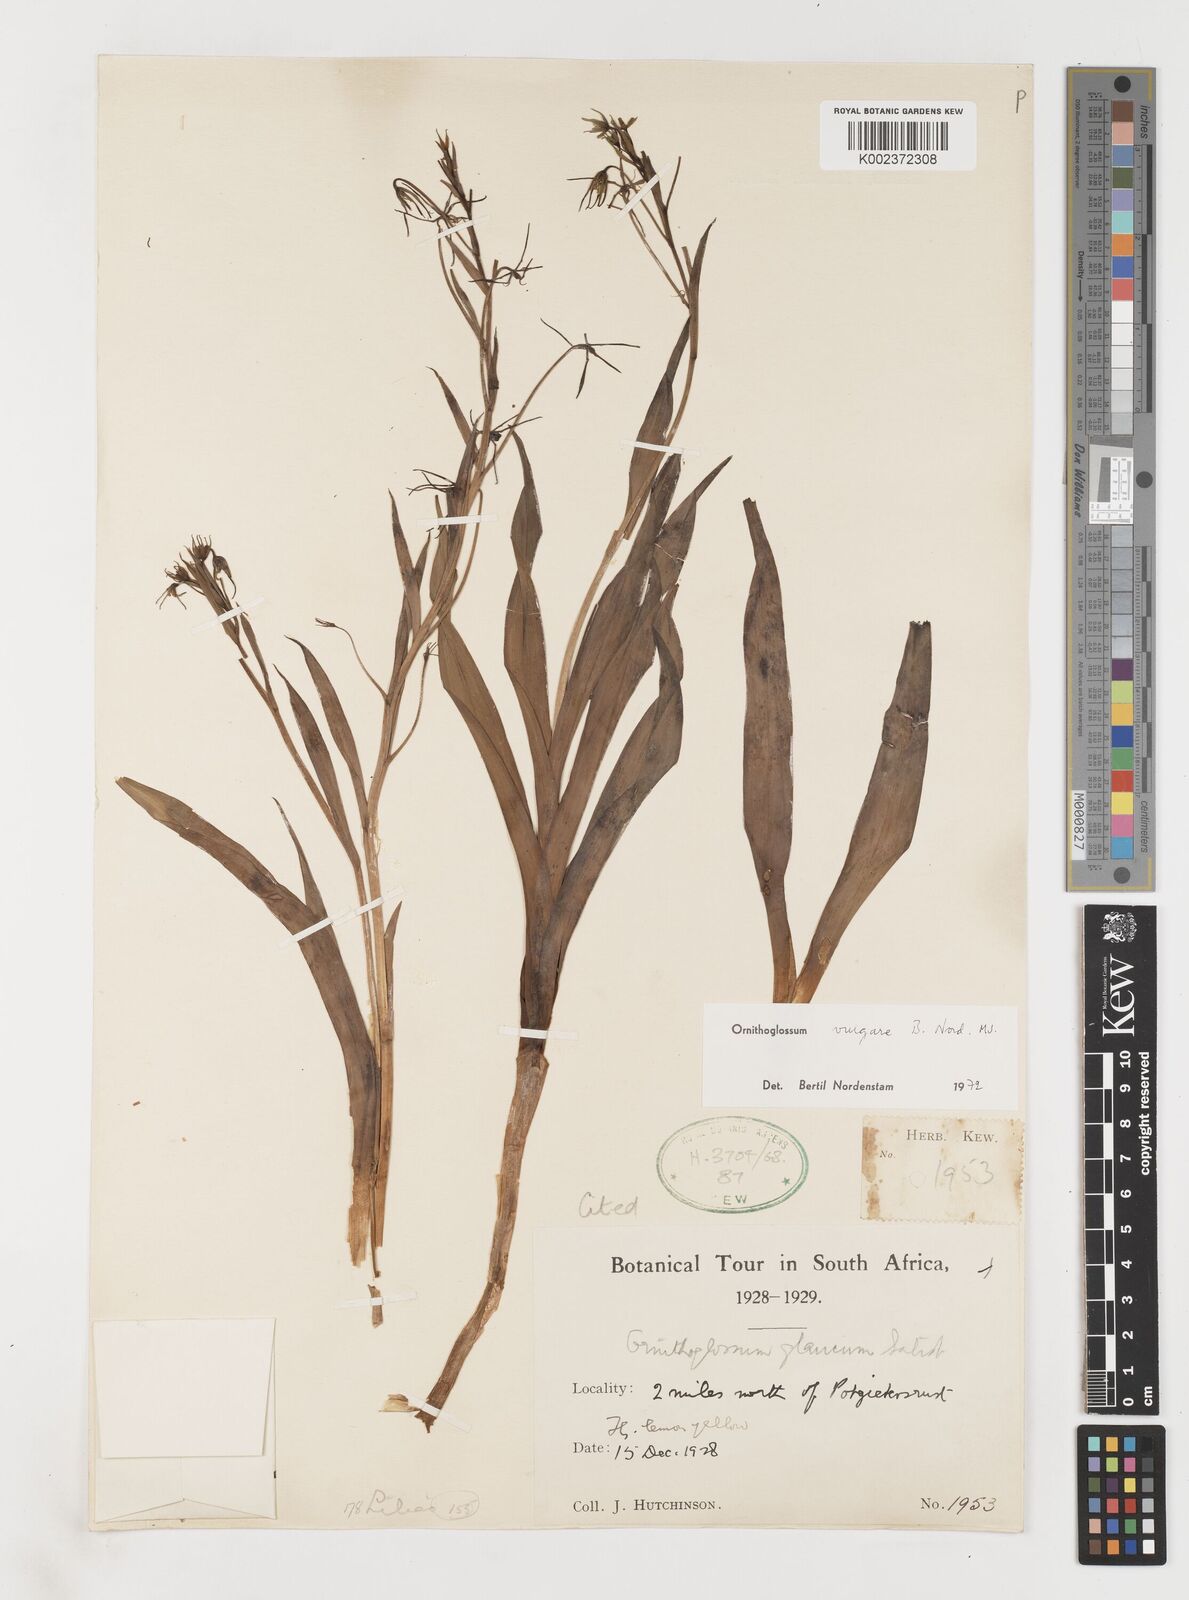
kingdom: Plantae
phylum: Tracheophyta
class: Liliopsida
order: Liliales
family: Colchicaceae
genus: Ornithoglossum
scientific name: Ornithoglossum vulgare
